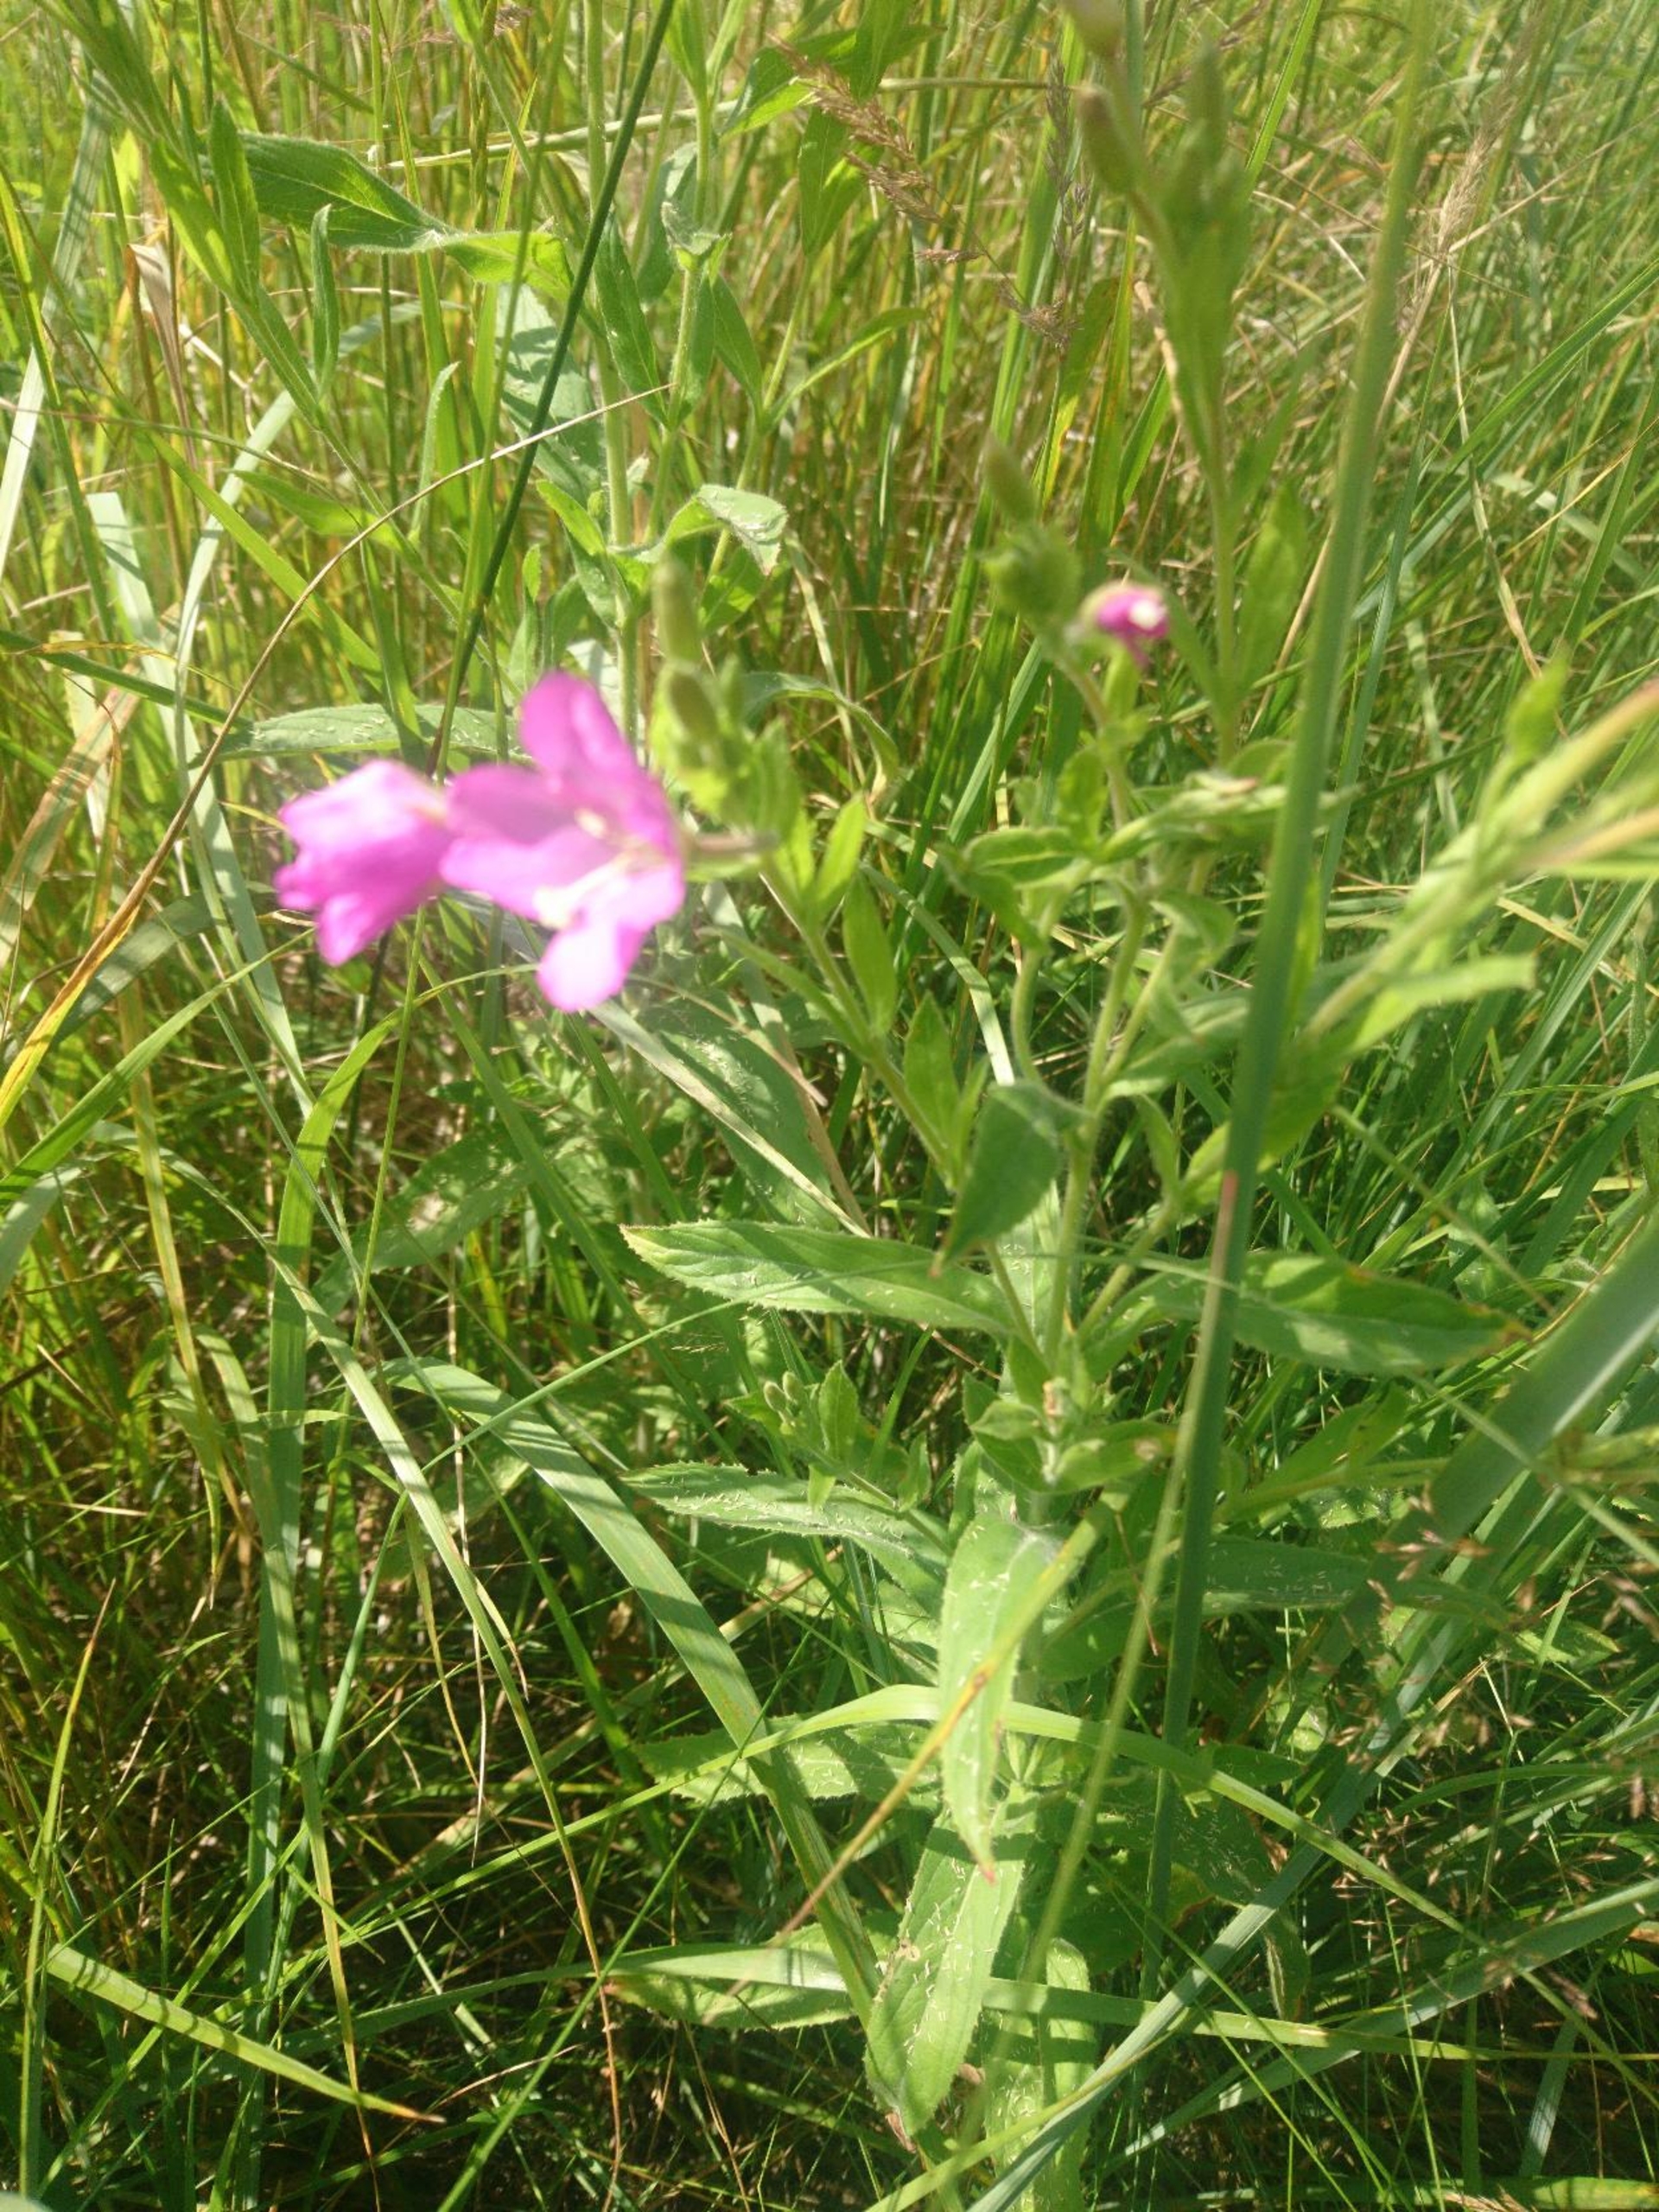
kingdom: Plantae
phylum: Tracheophyta
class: Magnoliopsida
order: Myrtales
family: Onagraceae
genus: Epilobium
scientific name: Epilobium hirsutum
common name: Lådden dueurt
